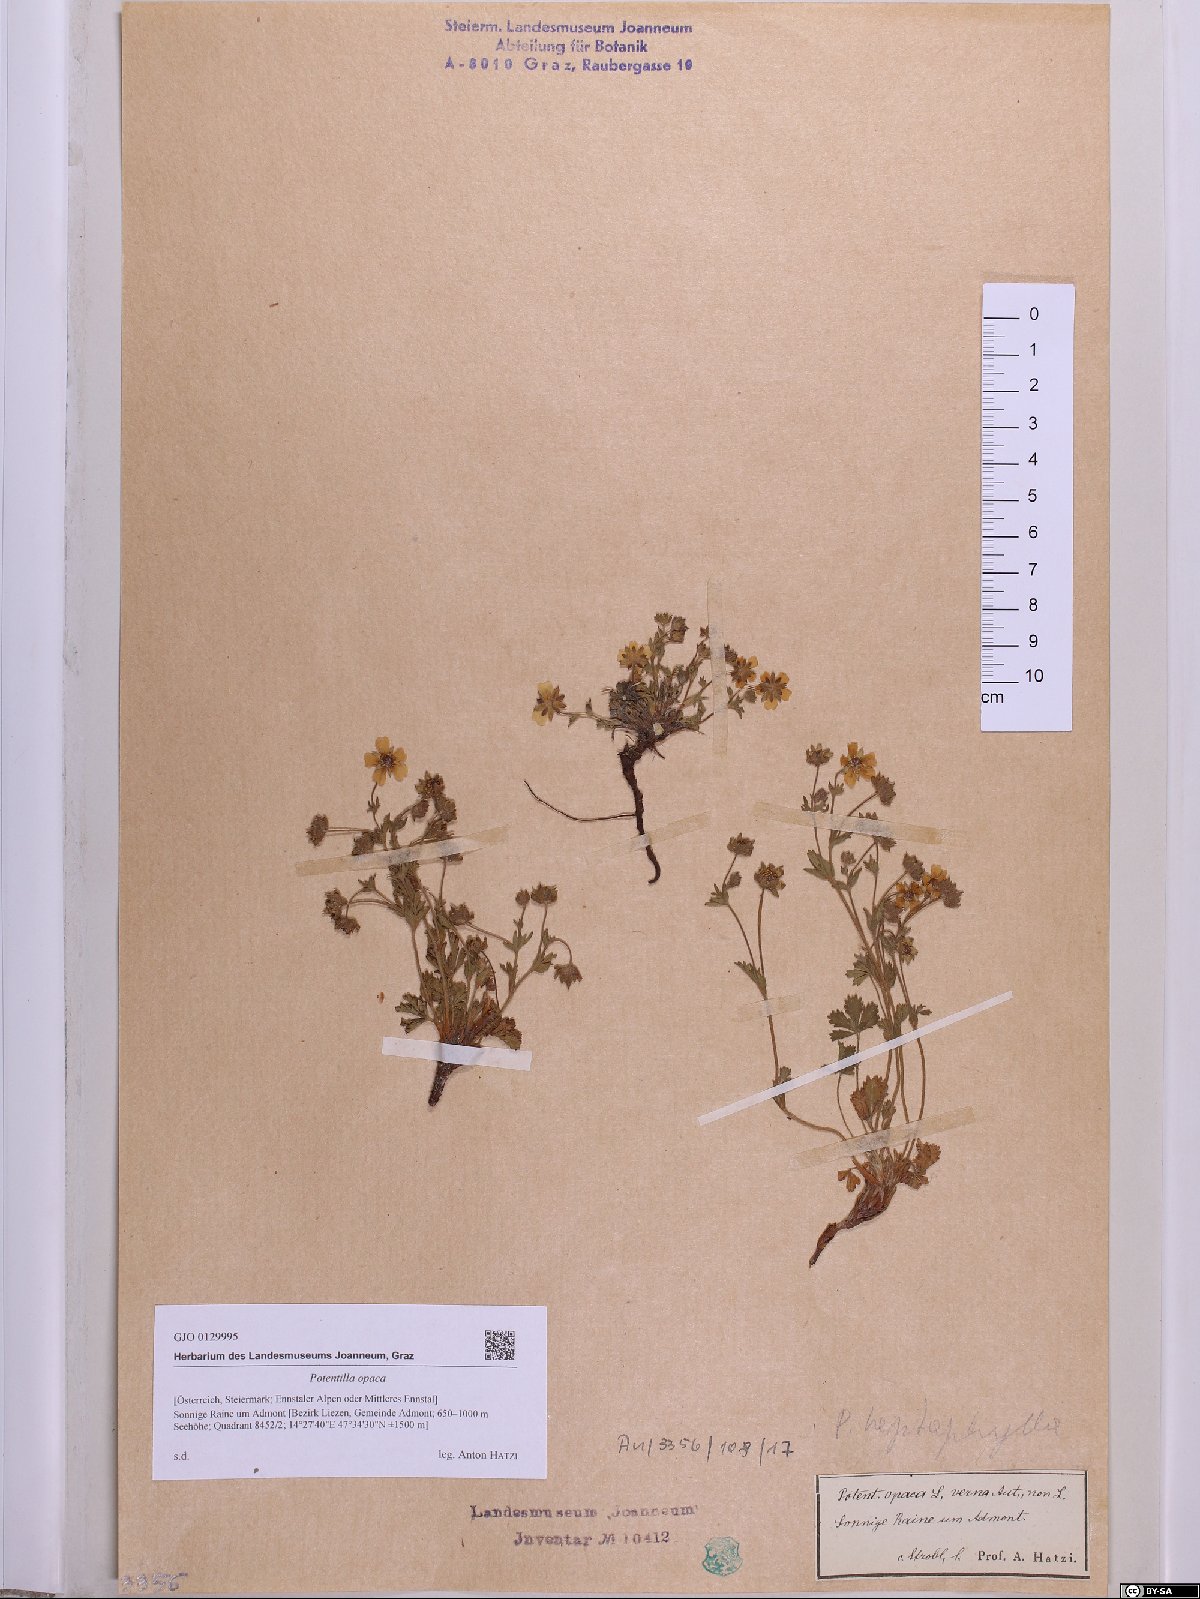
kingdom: Plantae
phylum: Tracheophyta
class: Magnoliopsida
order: Rosales
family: Rosaceae
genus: Potentilla
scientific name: Potentilla
